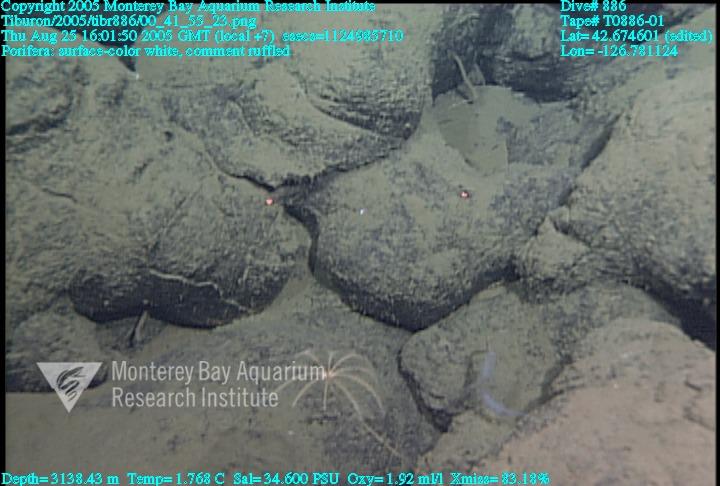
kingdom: Animalia
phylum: Porifera
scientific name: Porifera
